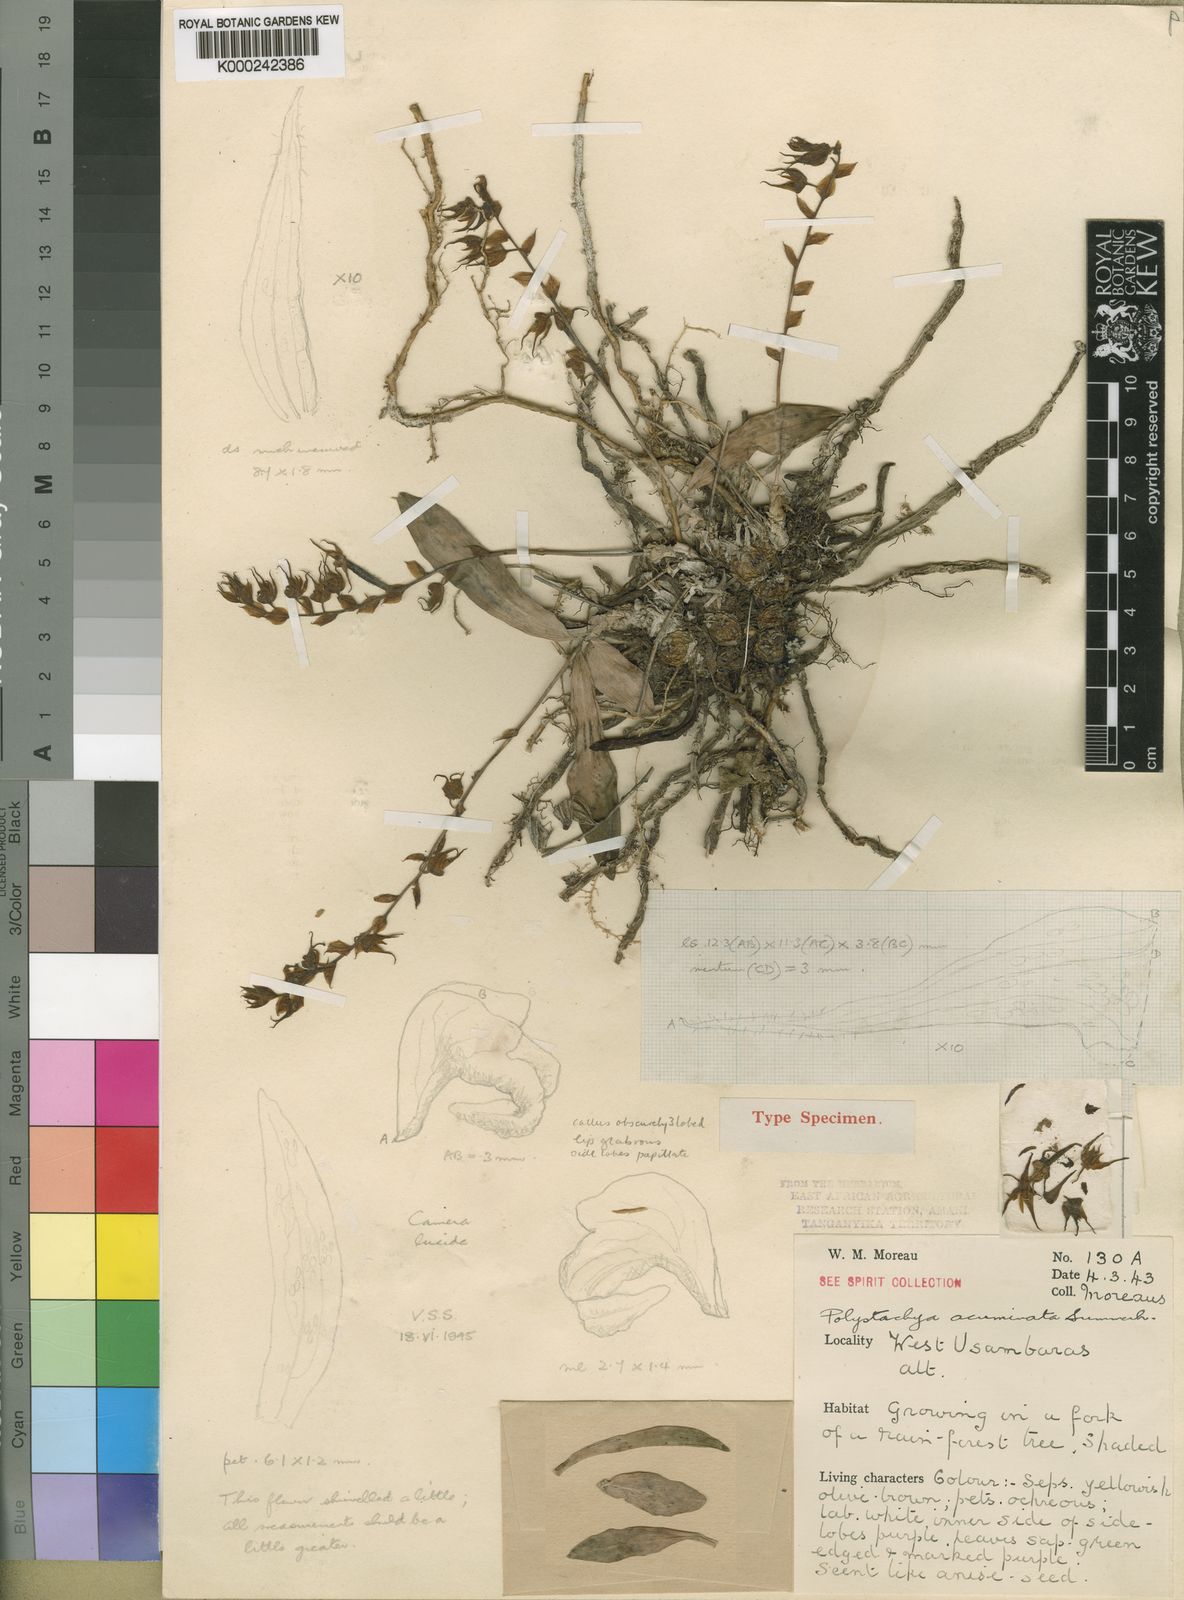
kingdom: Plantae
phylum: Tracheophyta
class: Liliopsida
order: Asparagales
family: Orchidaceae
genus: Polystachya
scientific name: Polystachya acuminata
